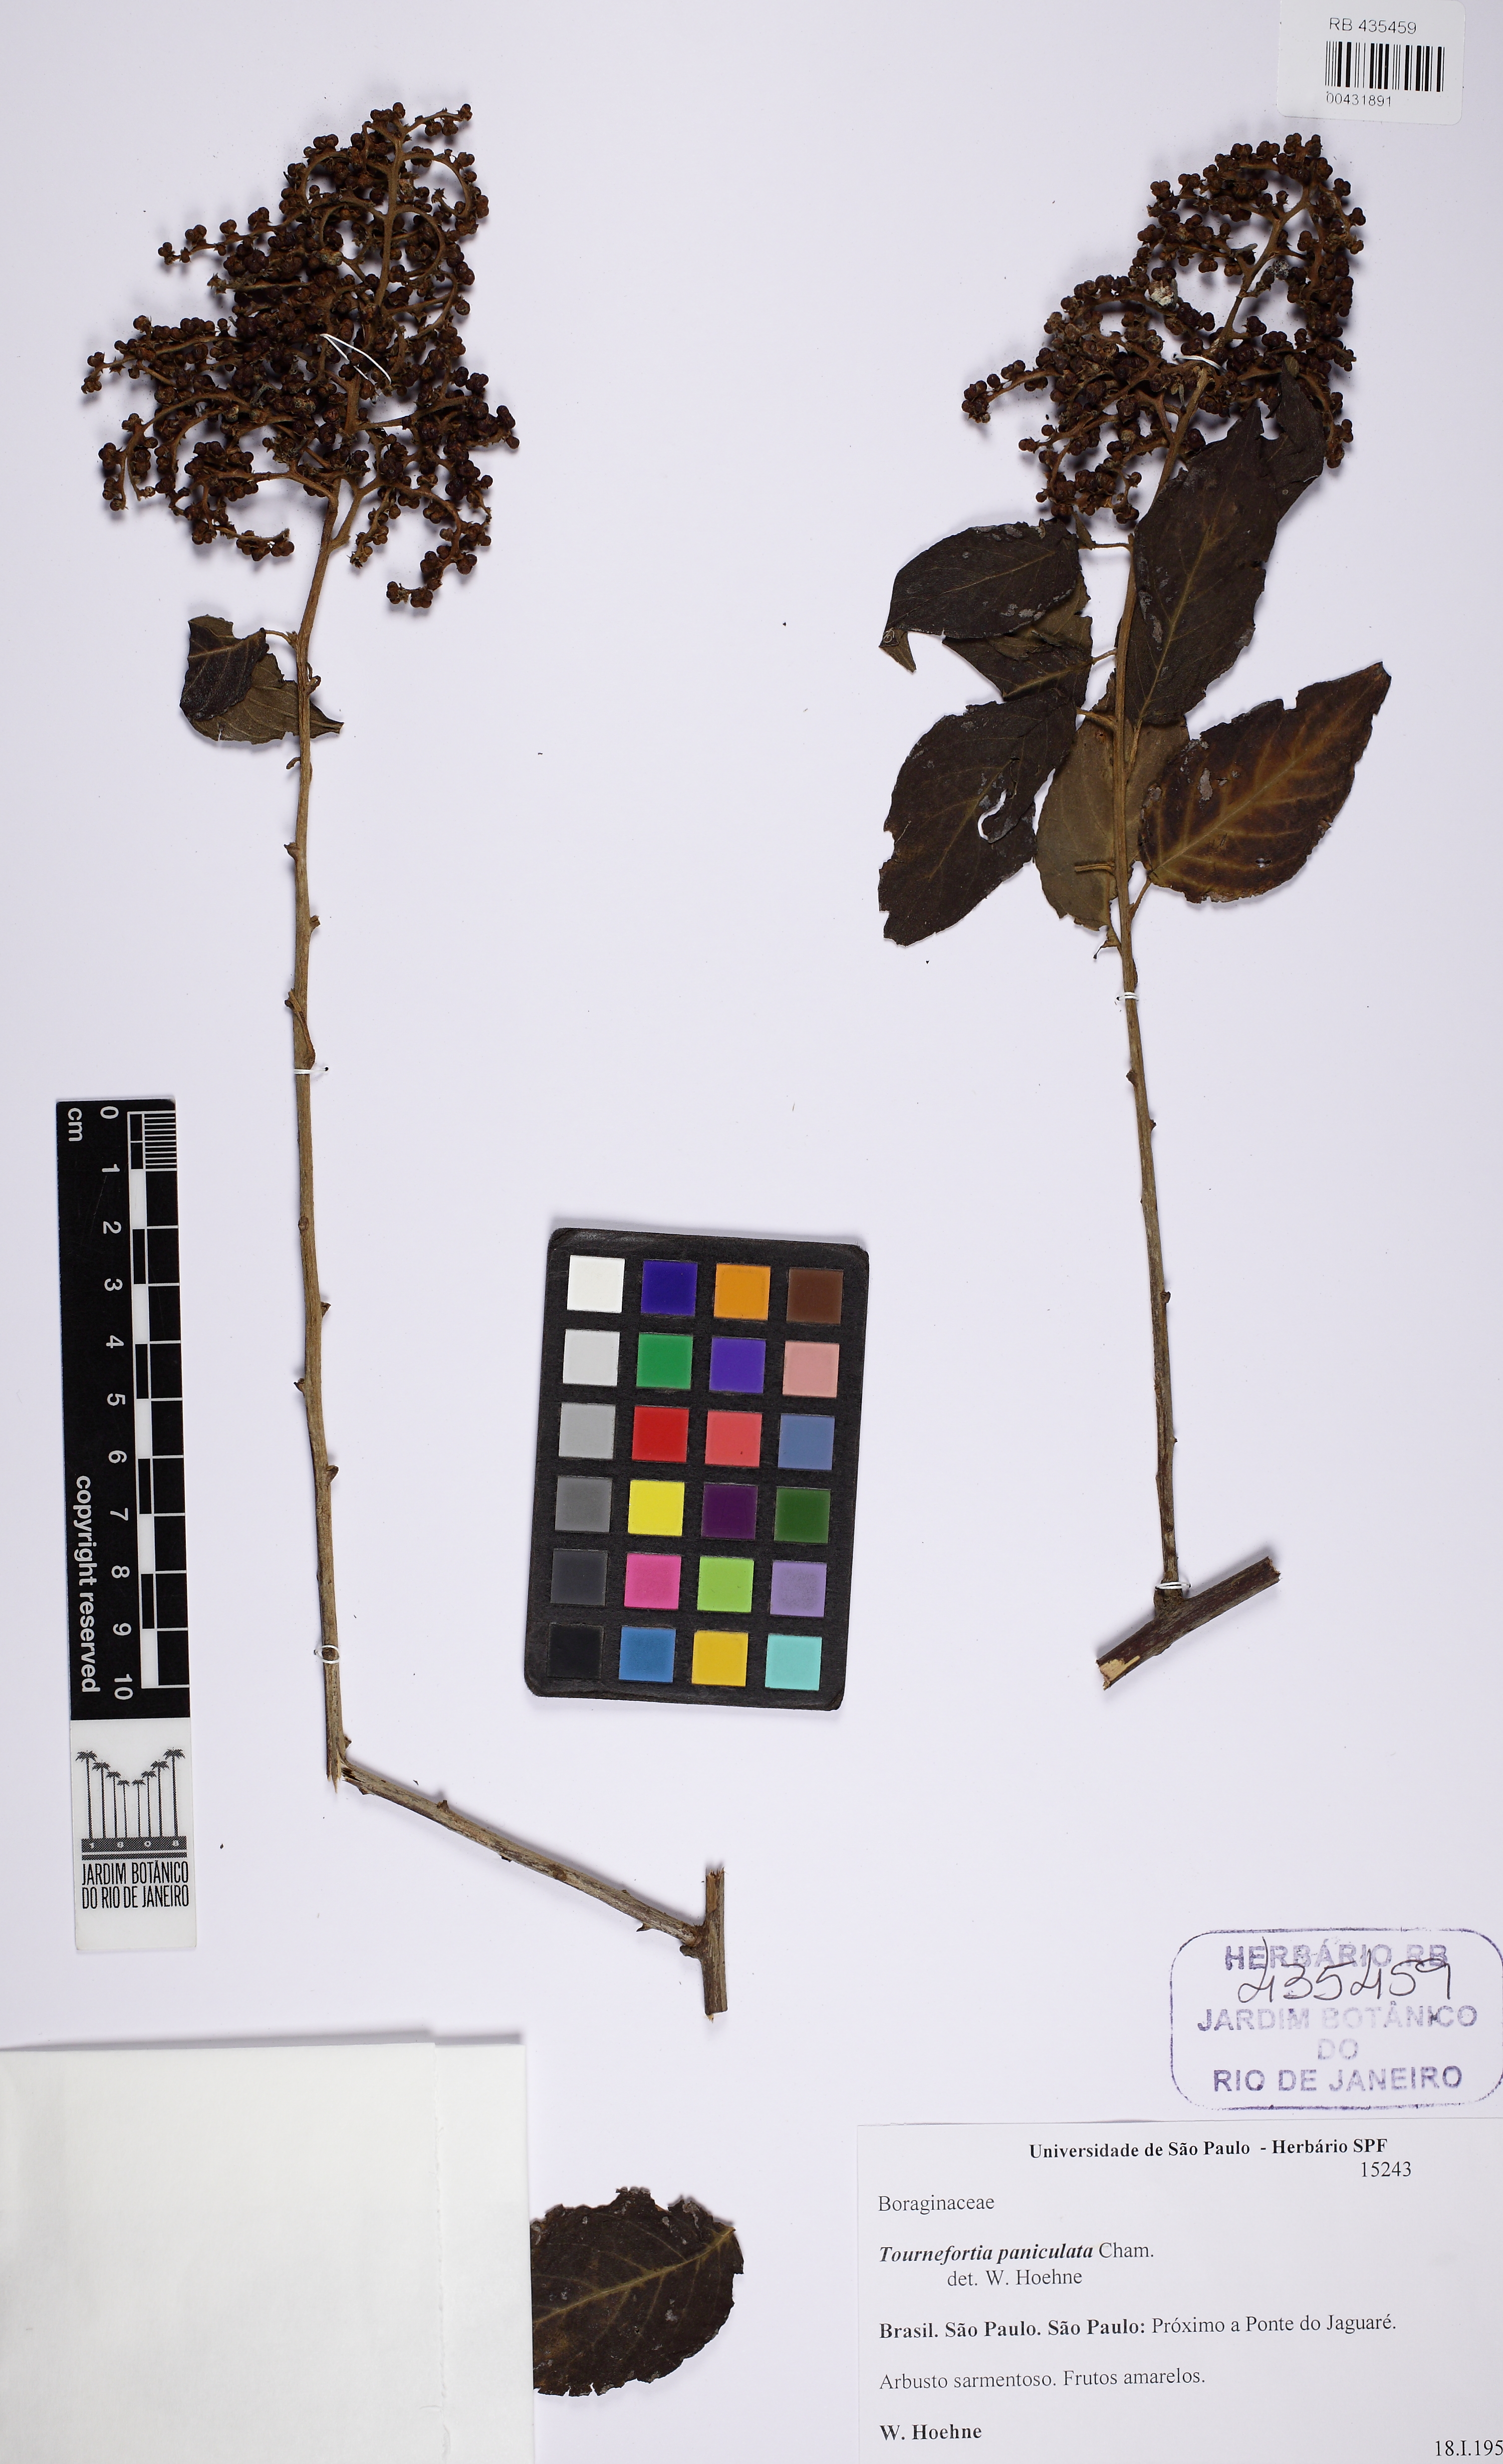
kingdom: Plantae
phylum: Tracheophyta
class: Magnoliopsida
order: Crossosomatales
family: Staphyleaceae
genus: Turpinia
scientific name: Turpinia occidentalis
